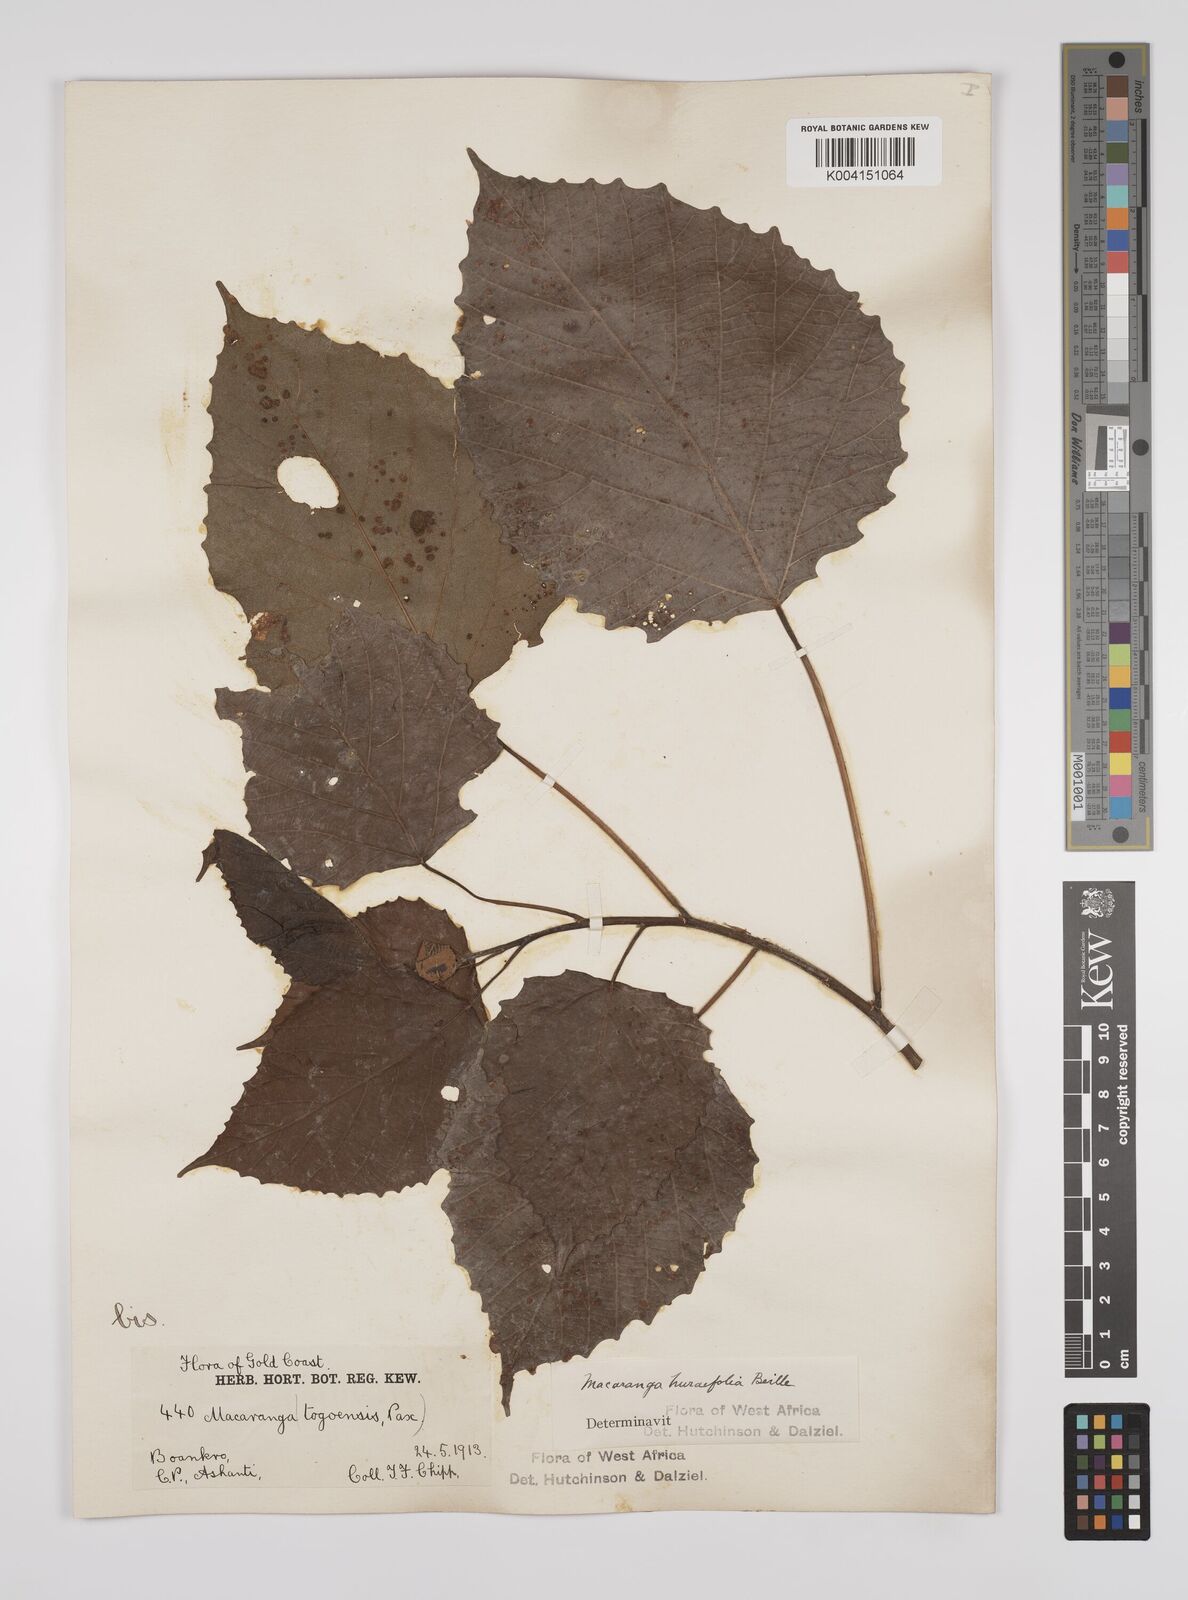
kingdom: Plantae
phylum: Tracheophyta
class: Magnoliopsida
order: Malpighiales
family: Euphorbiaceae
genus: Macaranga
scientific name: Macaranga hurifolia
